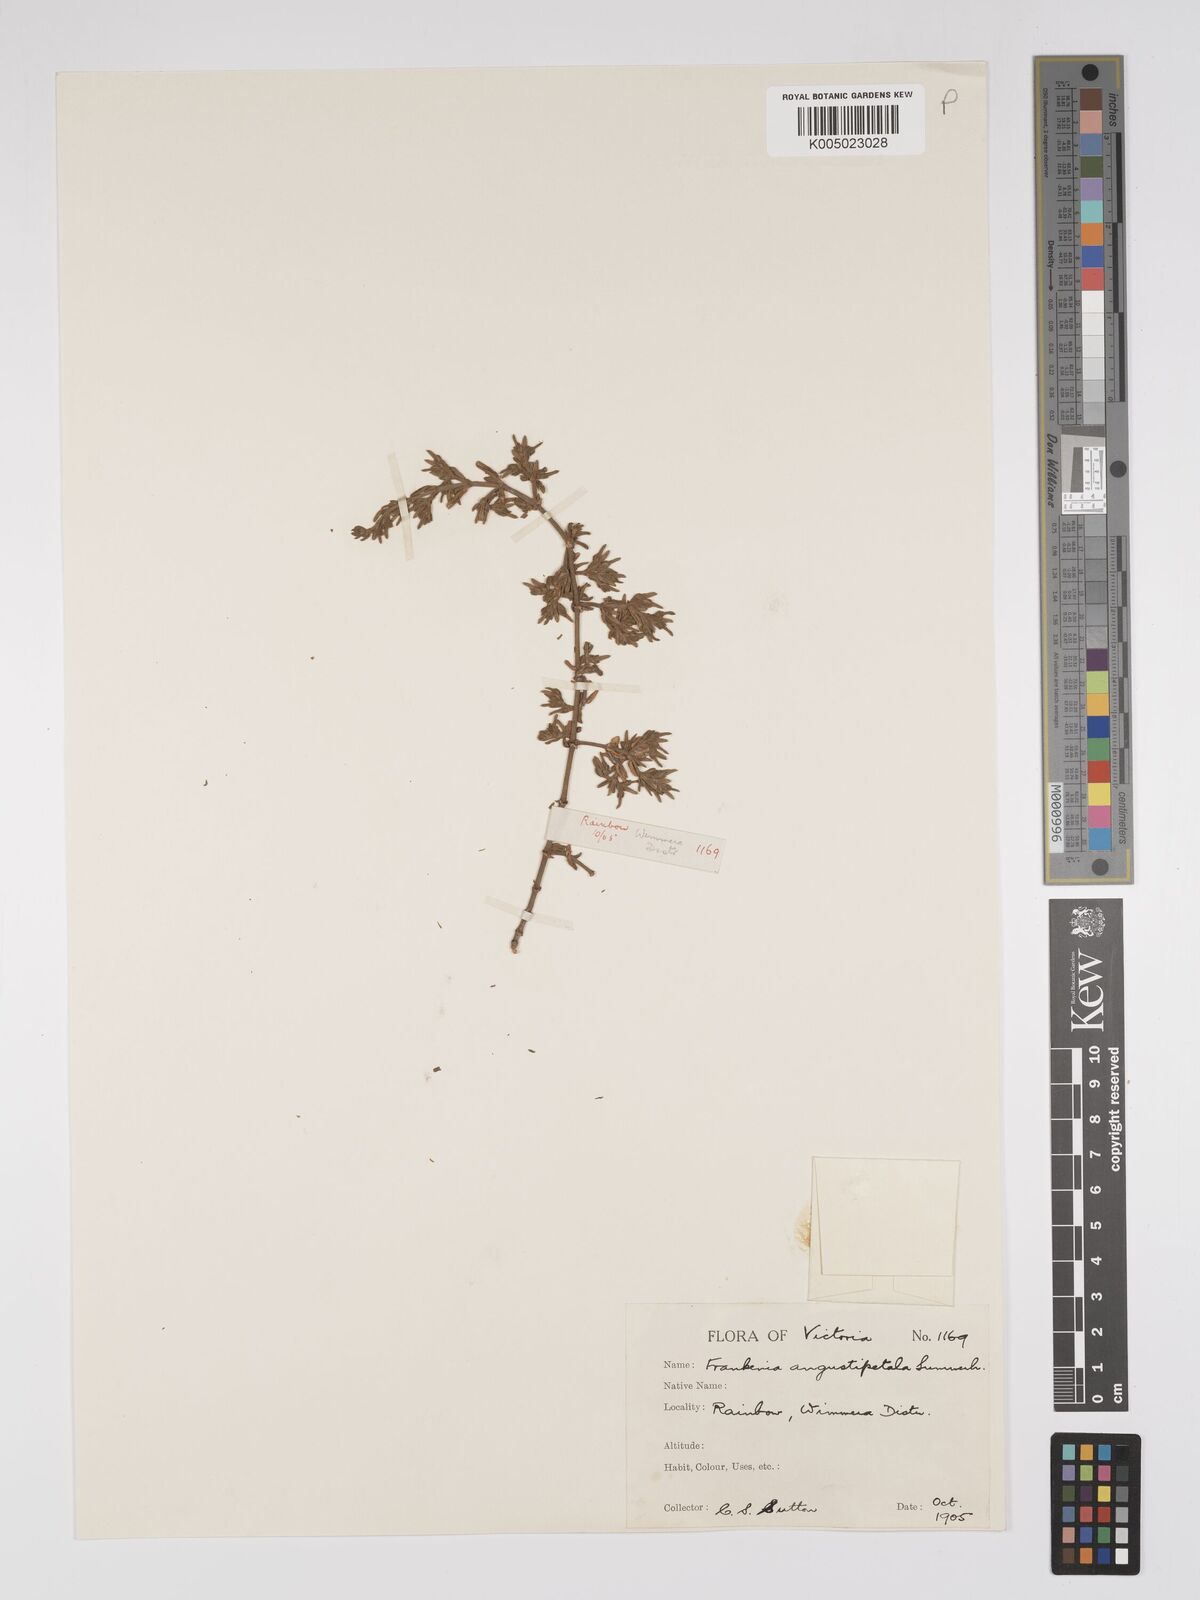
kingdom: Plantae
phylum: Tracheophyta
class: Magnoliopsida
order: Caryophyllales
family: Frankeniaceae
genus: Frankenia
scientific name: Frankenia angustipetala
